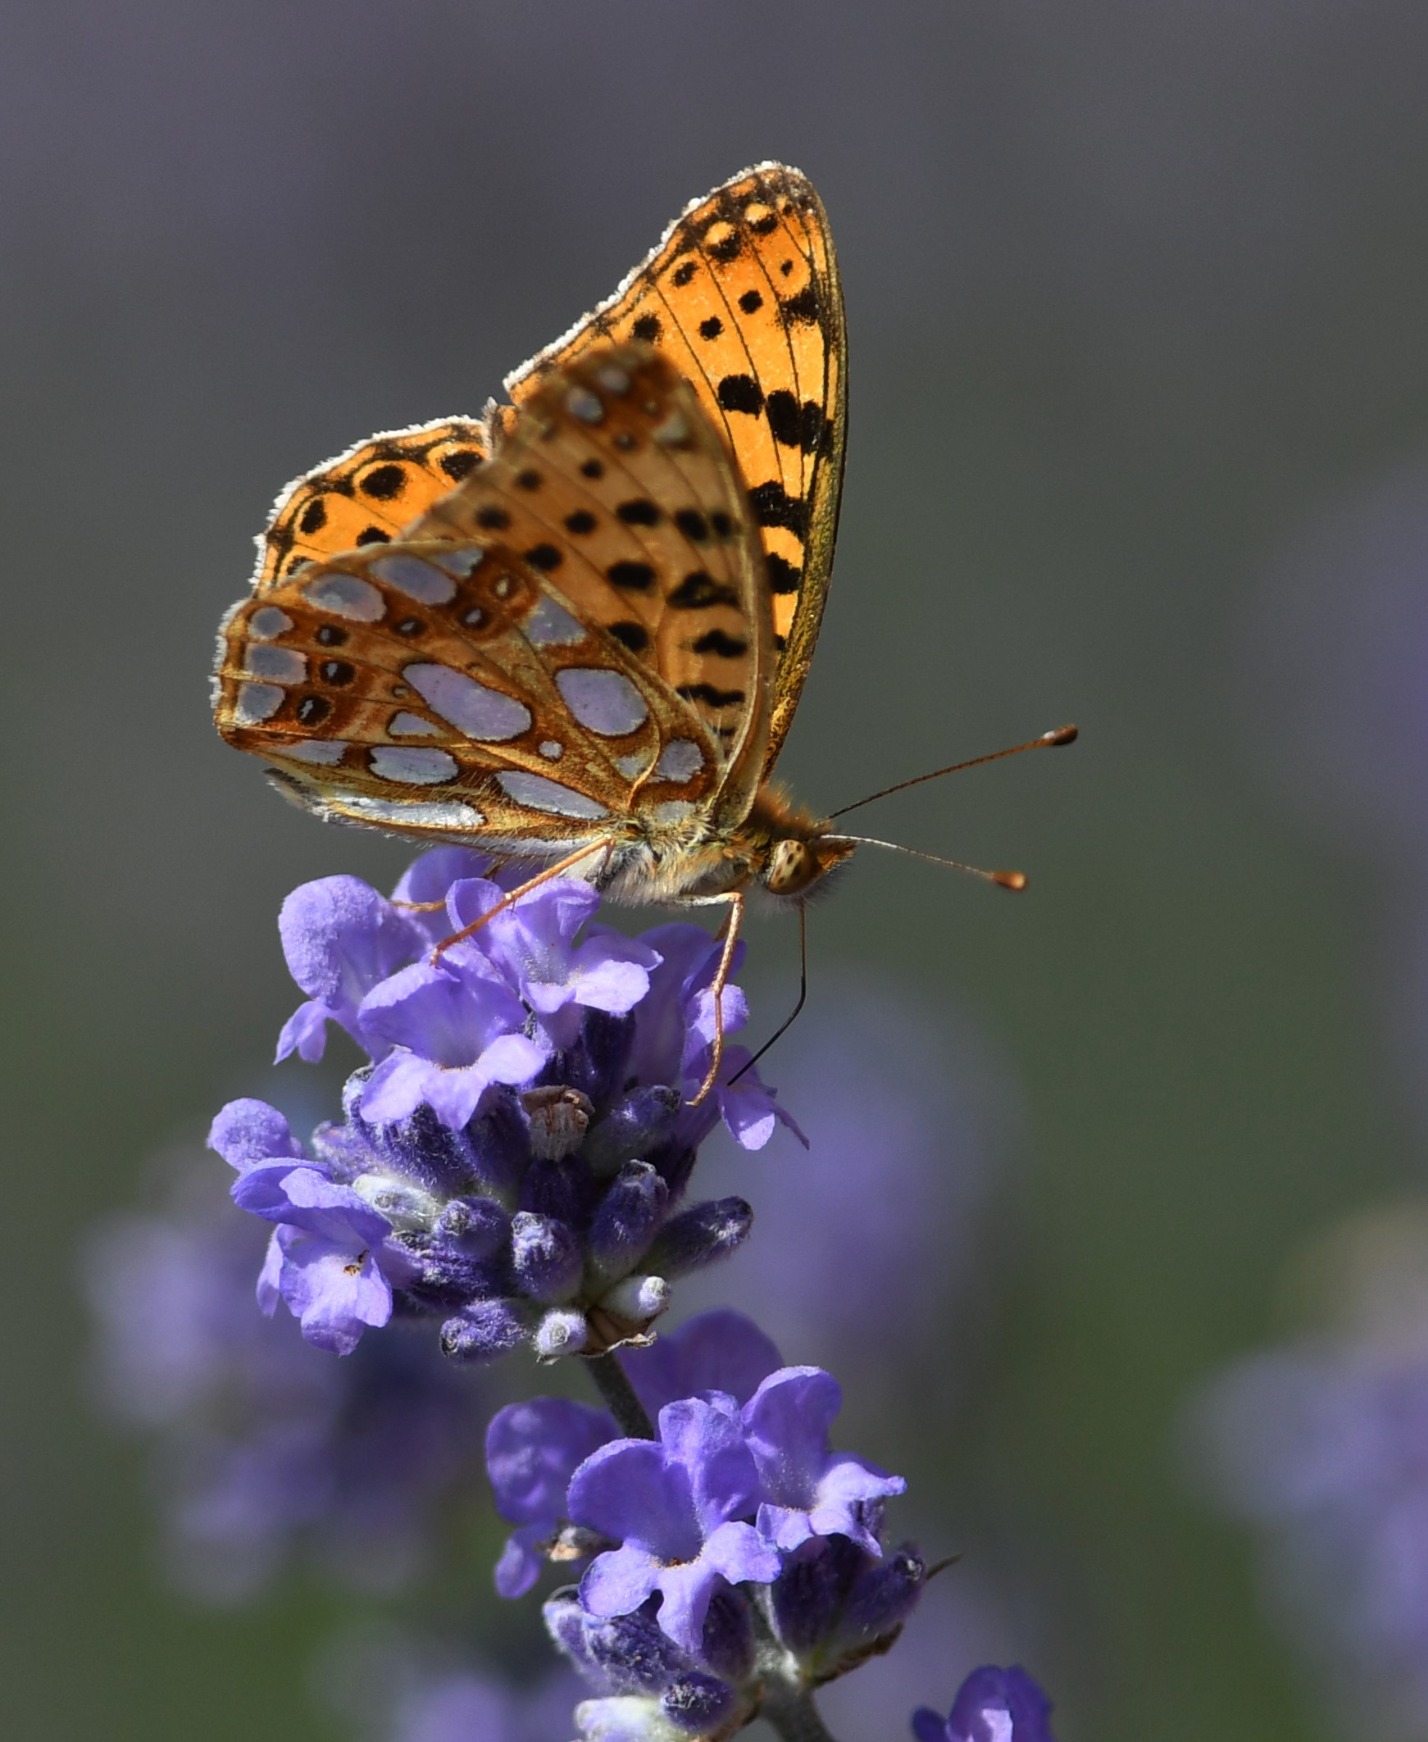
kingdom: Animalia
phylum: Arthropoda
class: Insecta
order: Lepidoptera
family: Nymphalidae
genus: Issoria
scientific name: Issoria lathonia
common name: Storplettet perlemorsommerfugl
